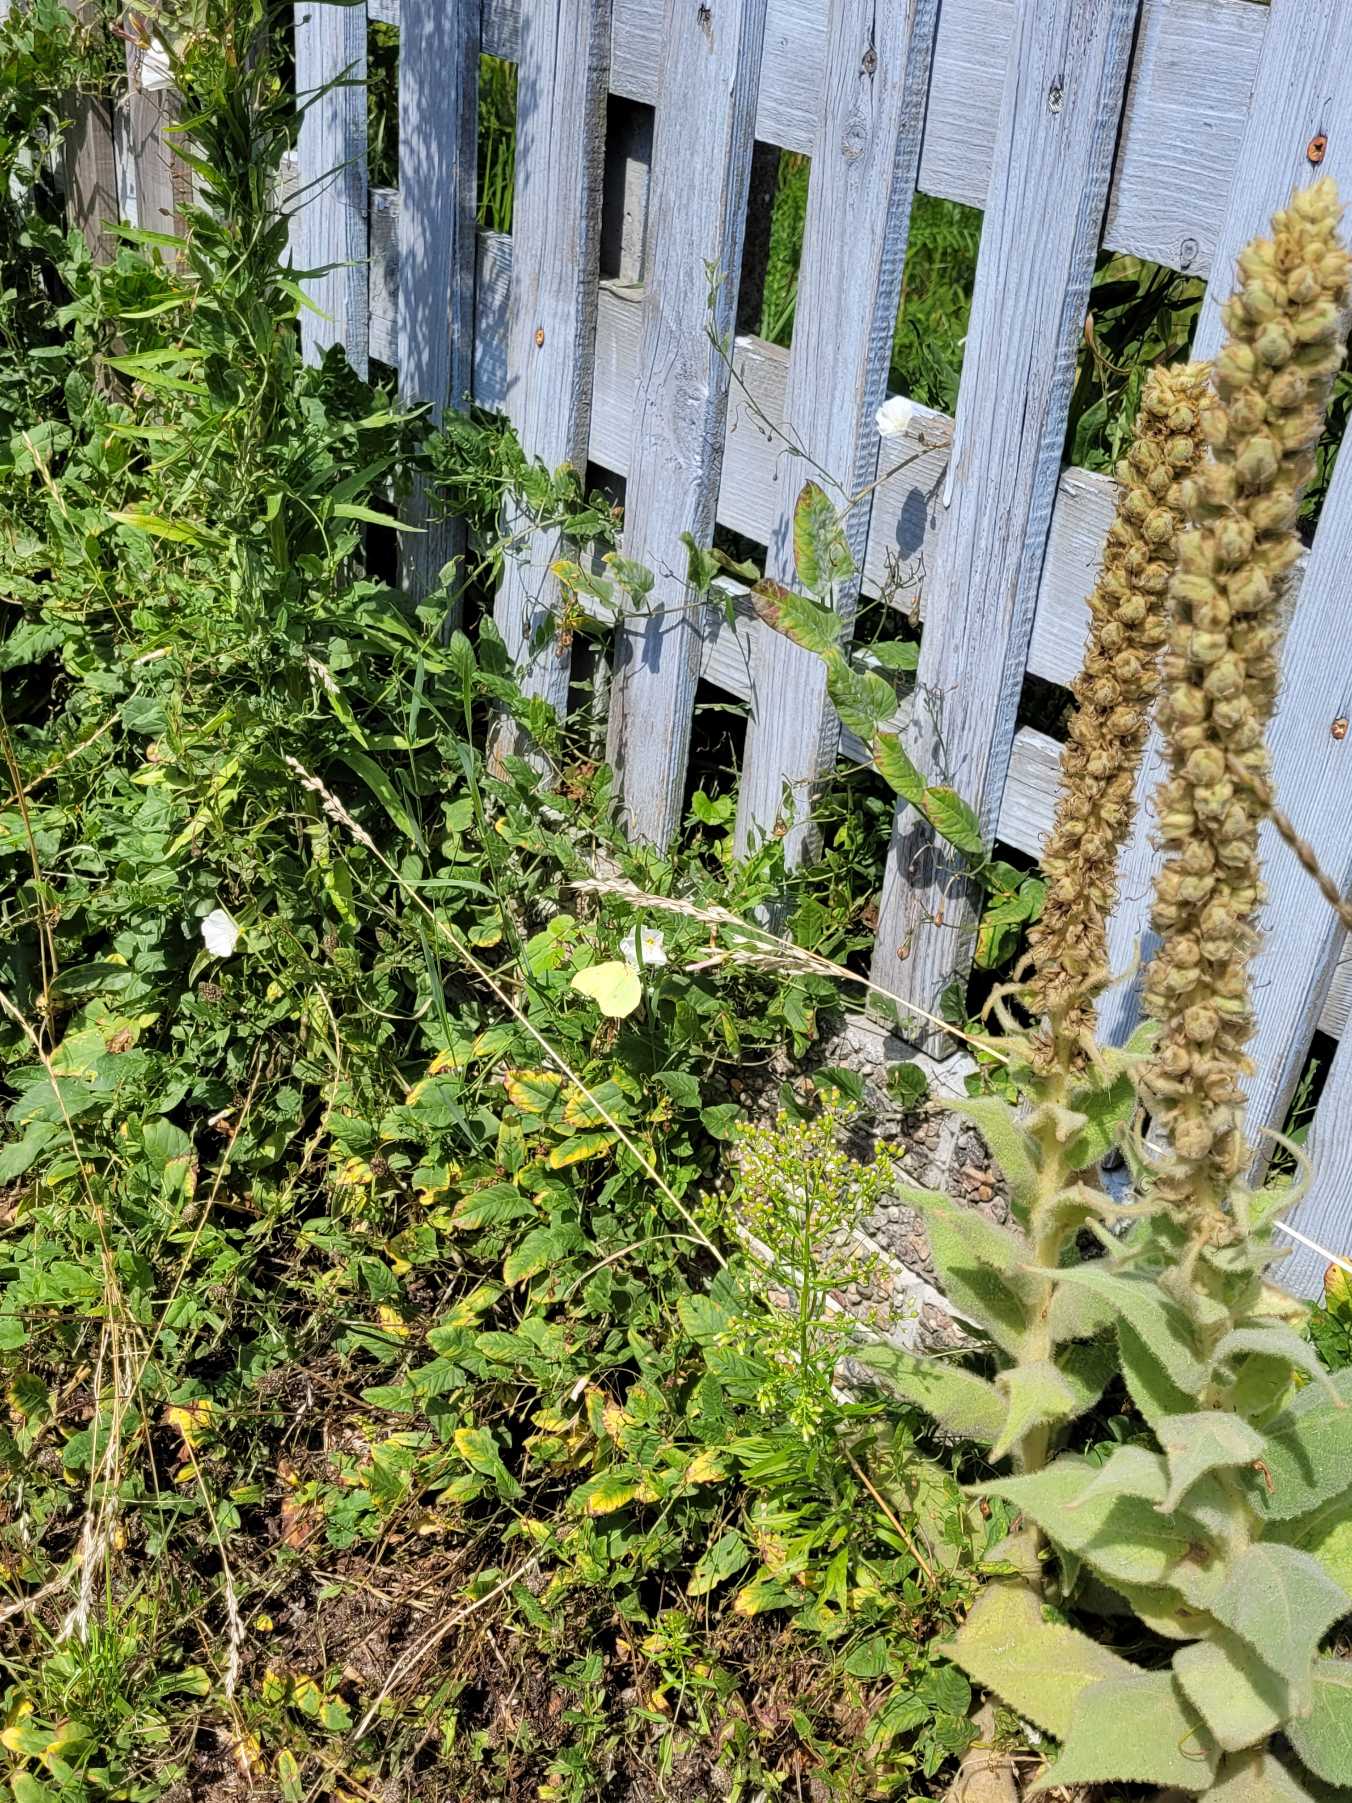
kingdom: Animalia
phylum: Arthropoda
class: Insecta
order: Lepidoptera
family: Pieridae
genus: Gonepteryx
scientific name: Gonepteryx rhamni
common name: Citronsommerfugl
